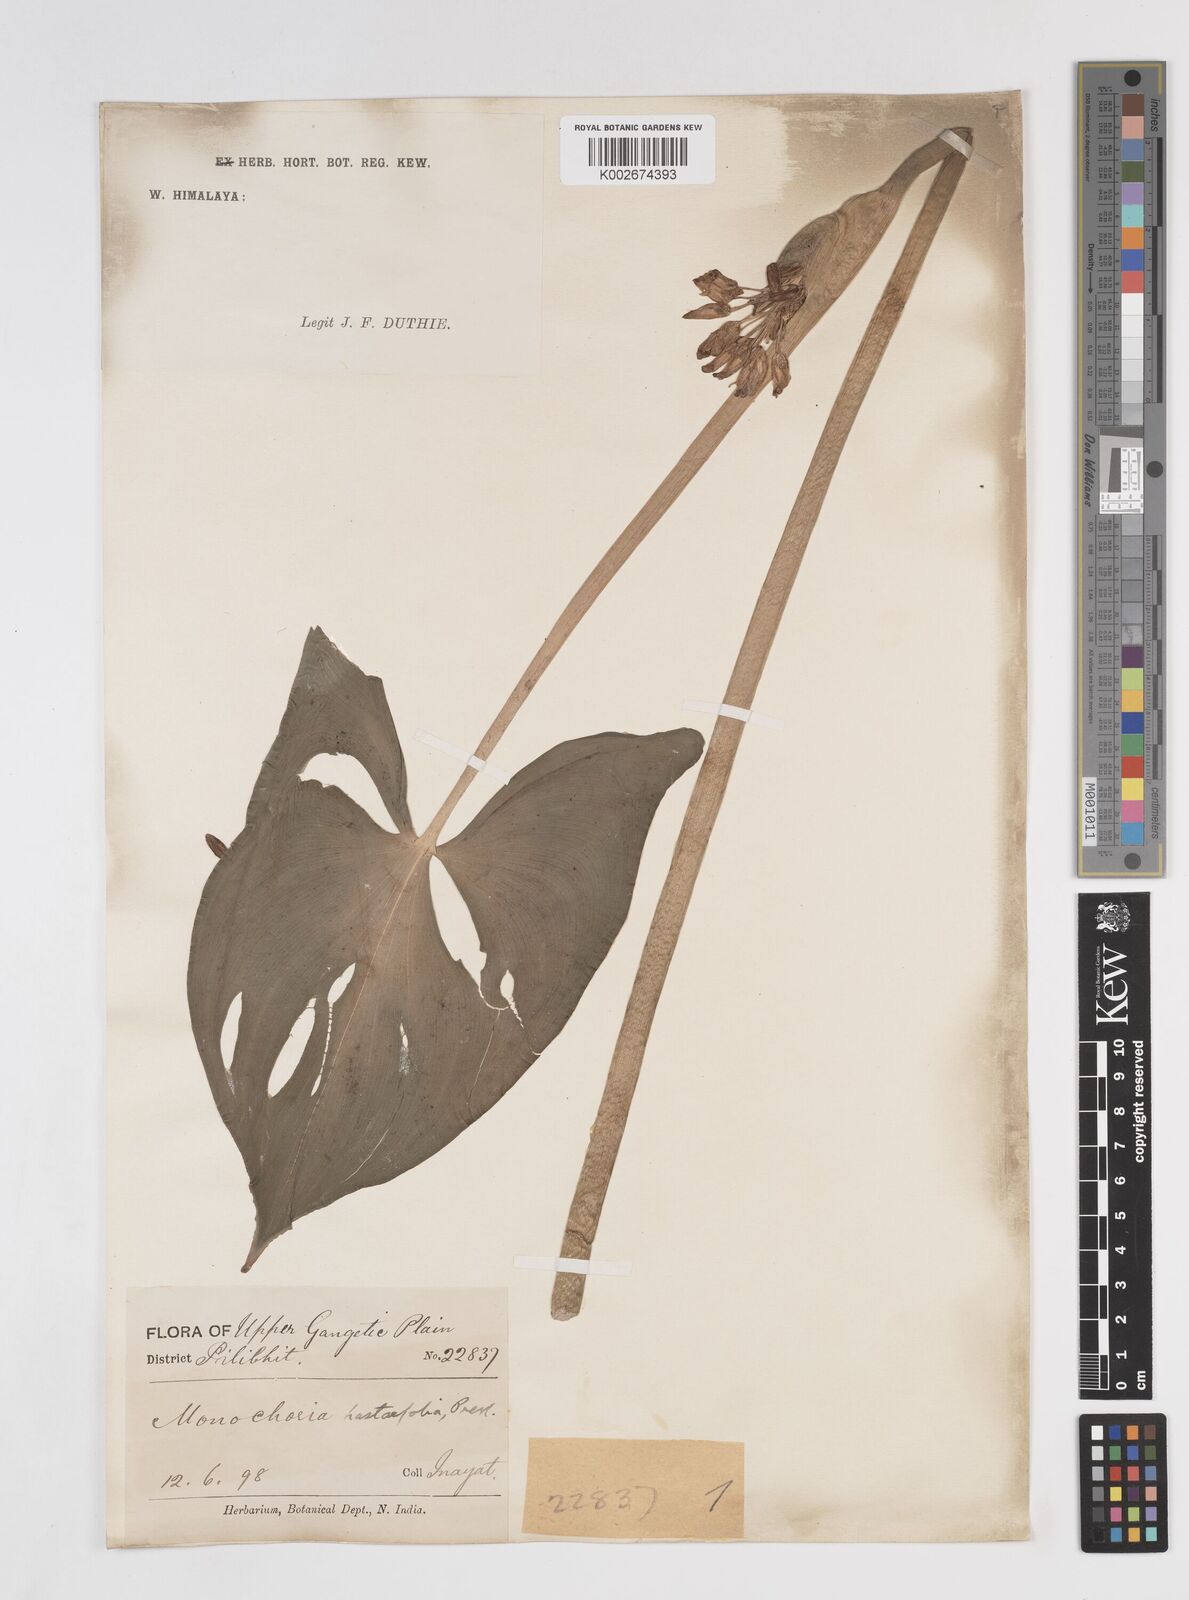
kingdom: Plantae
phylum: Tracheophyta
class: Liliopsida
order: Commelinales
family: Pontederiaceae
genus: Pontederia
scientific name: Pontederia hastata
